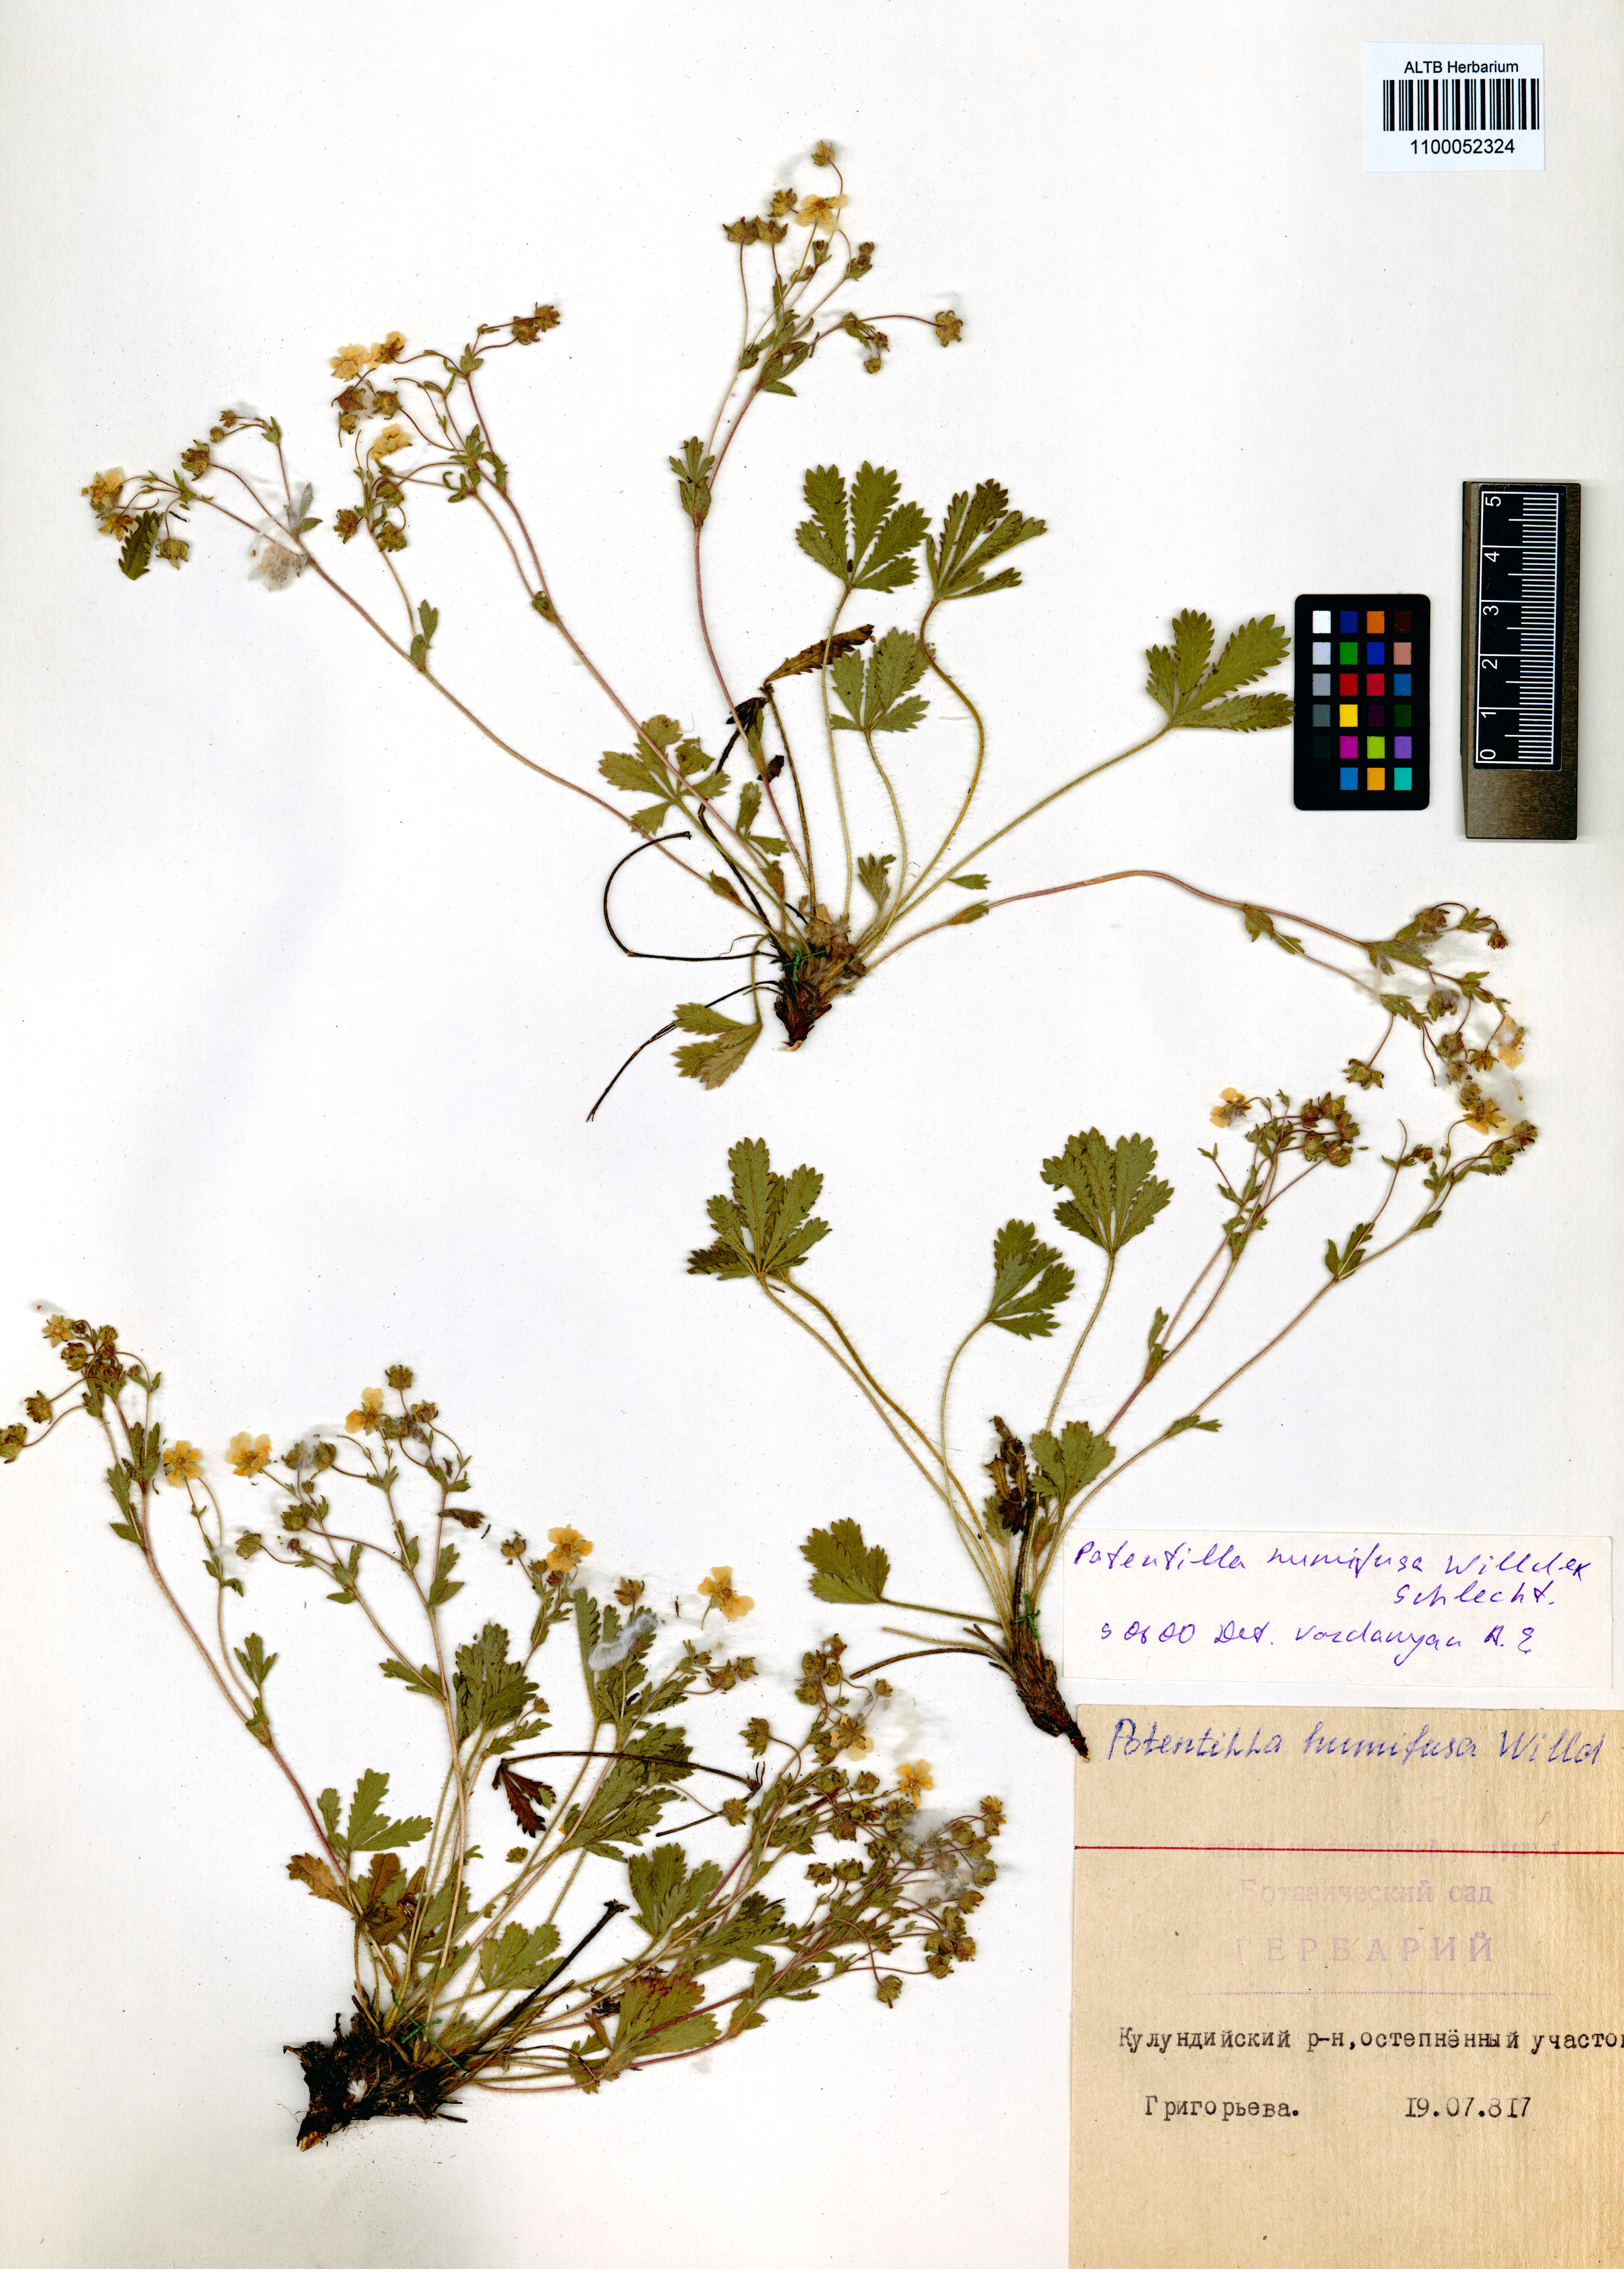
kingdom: Plantae
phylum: Tracheophyta
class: Magnoliopsida
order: Rosales
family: Rosaceae
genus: Potentilla
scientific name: Potentilla humifusa
